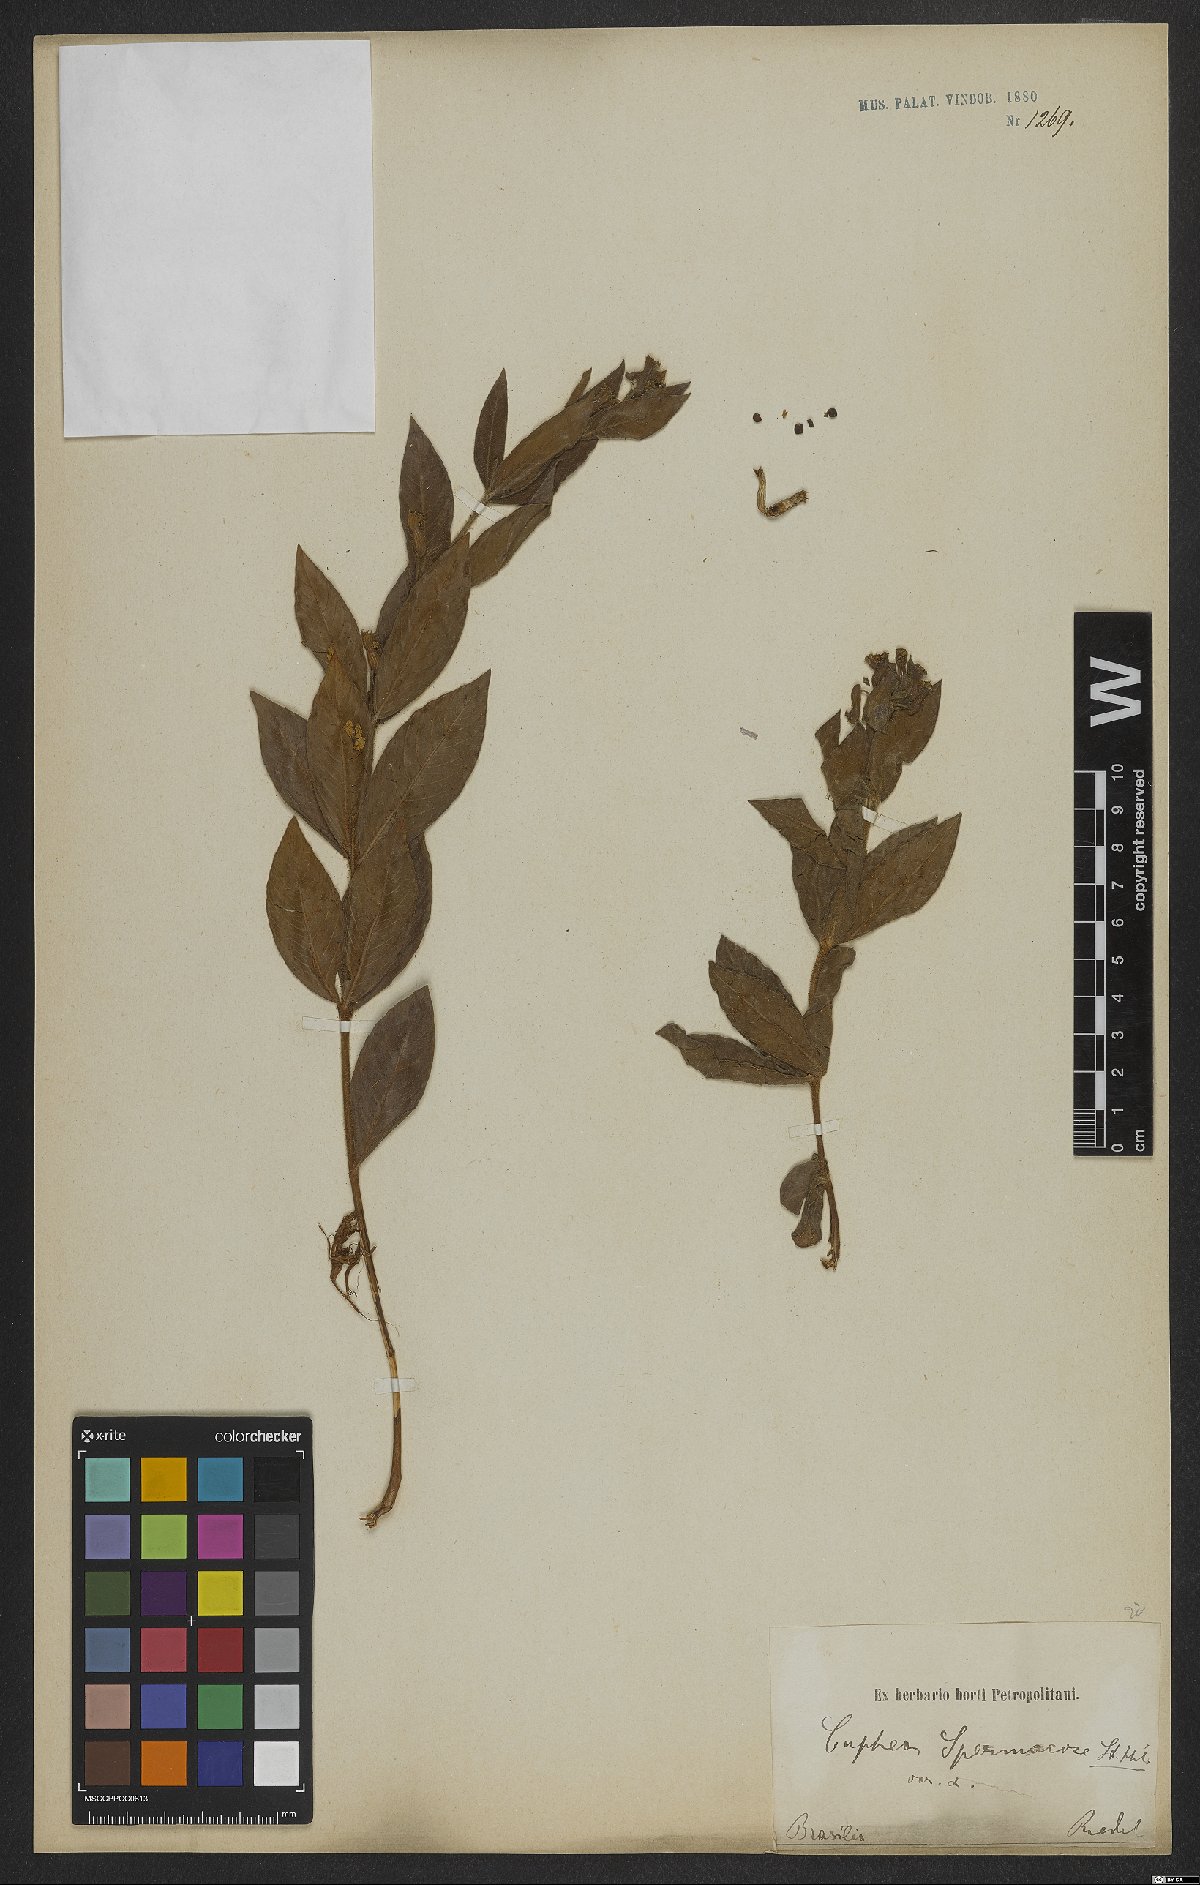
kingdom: Plantae
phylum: Tracheophyta
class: Magnoliopsida
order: Myrtales
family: Lythraceae
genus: Cuphea
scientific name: Cuphea spermacoce
